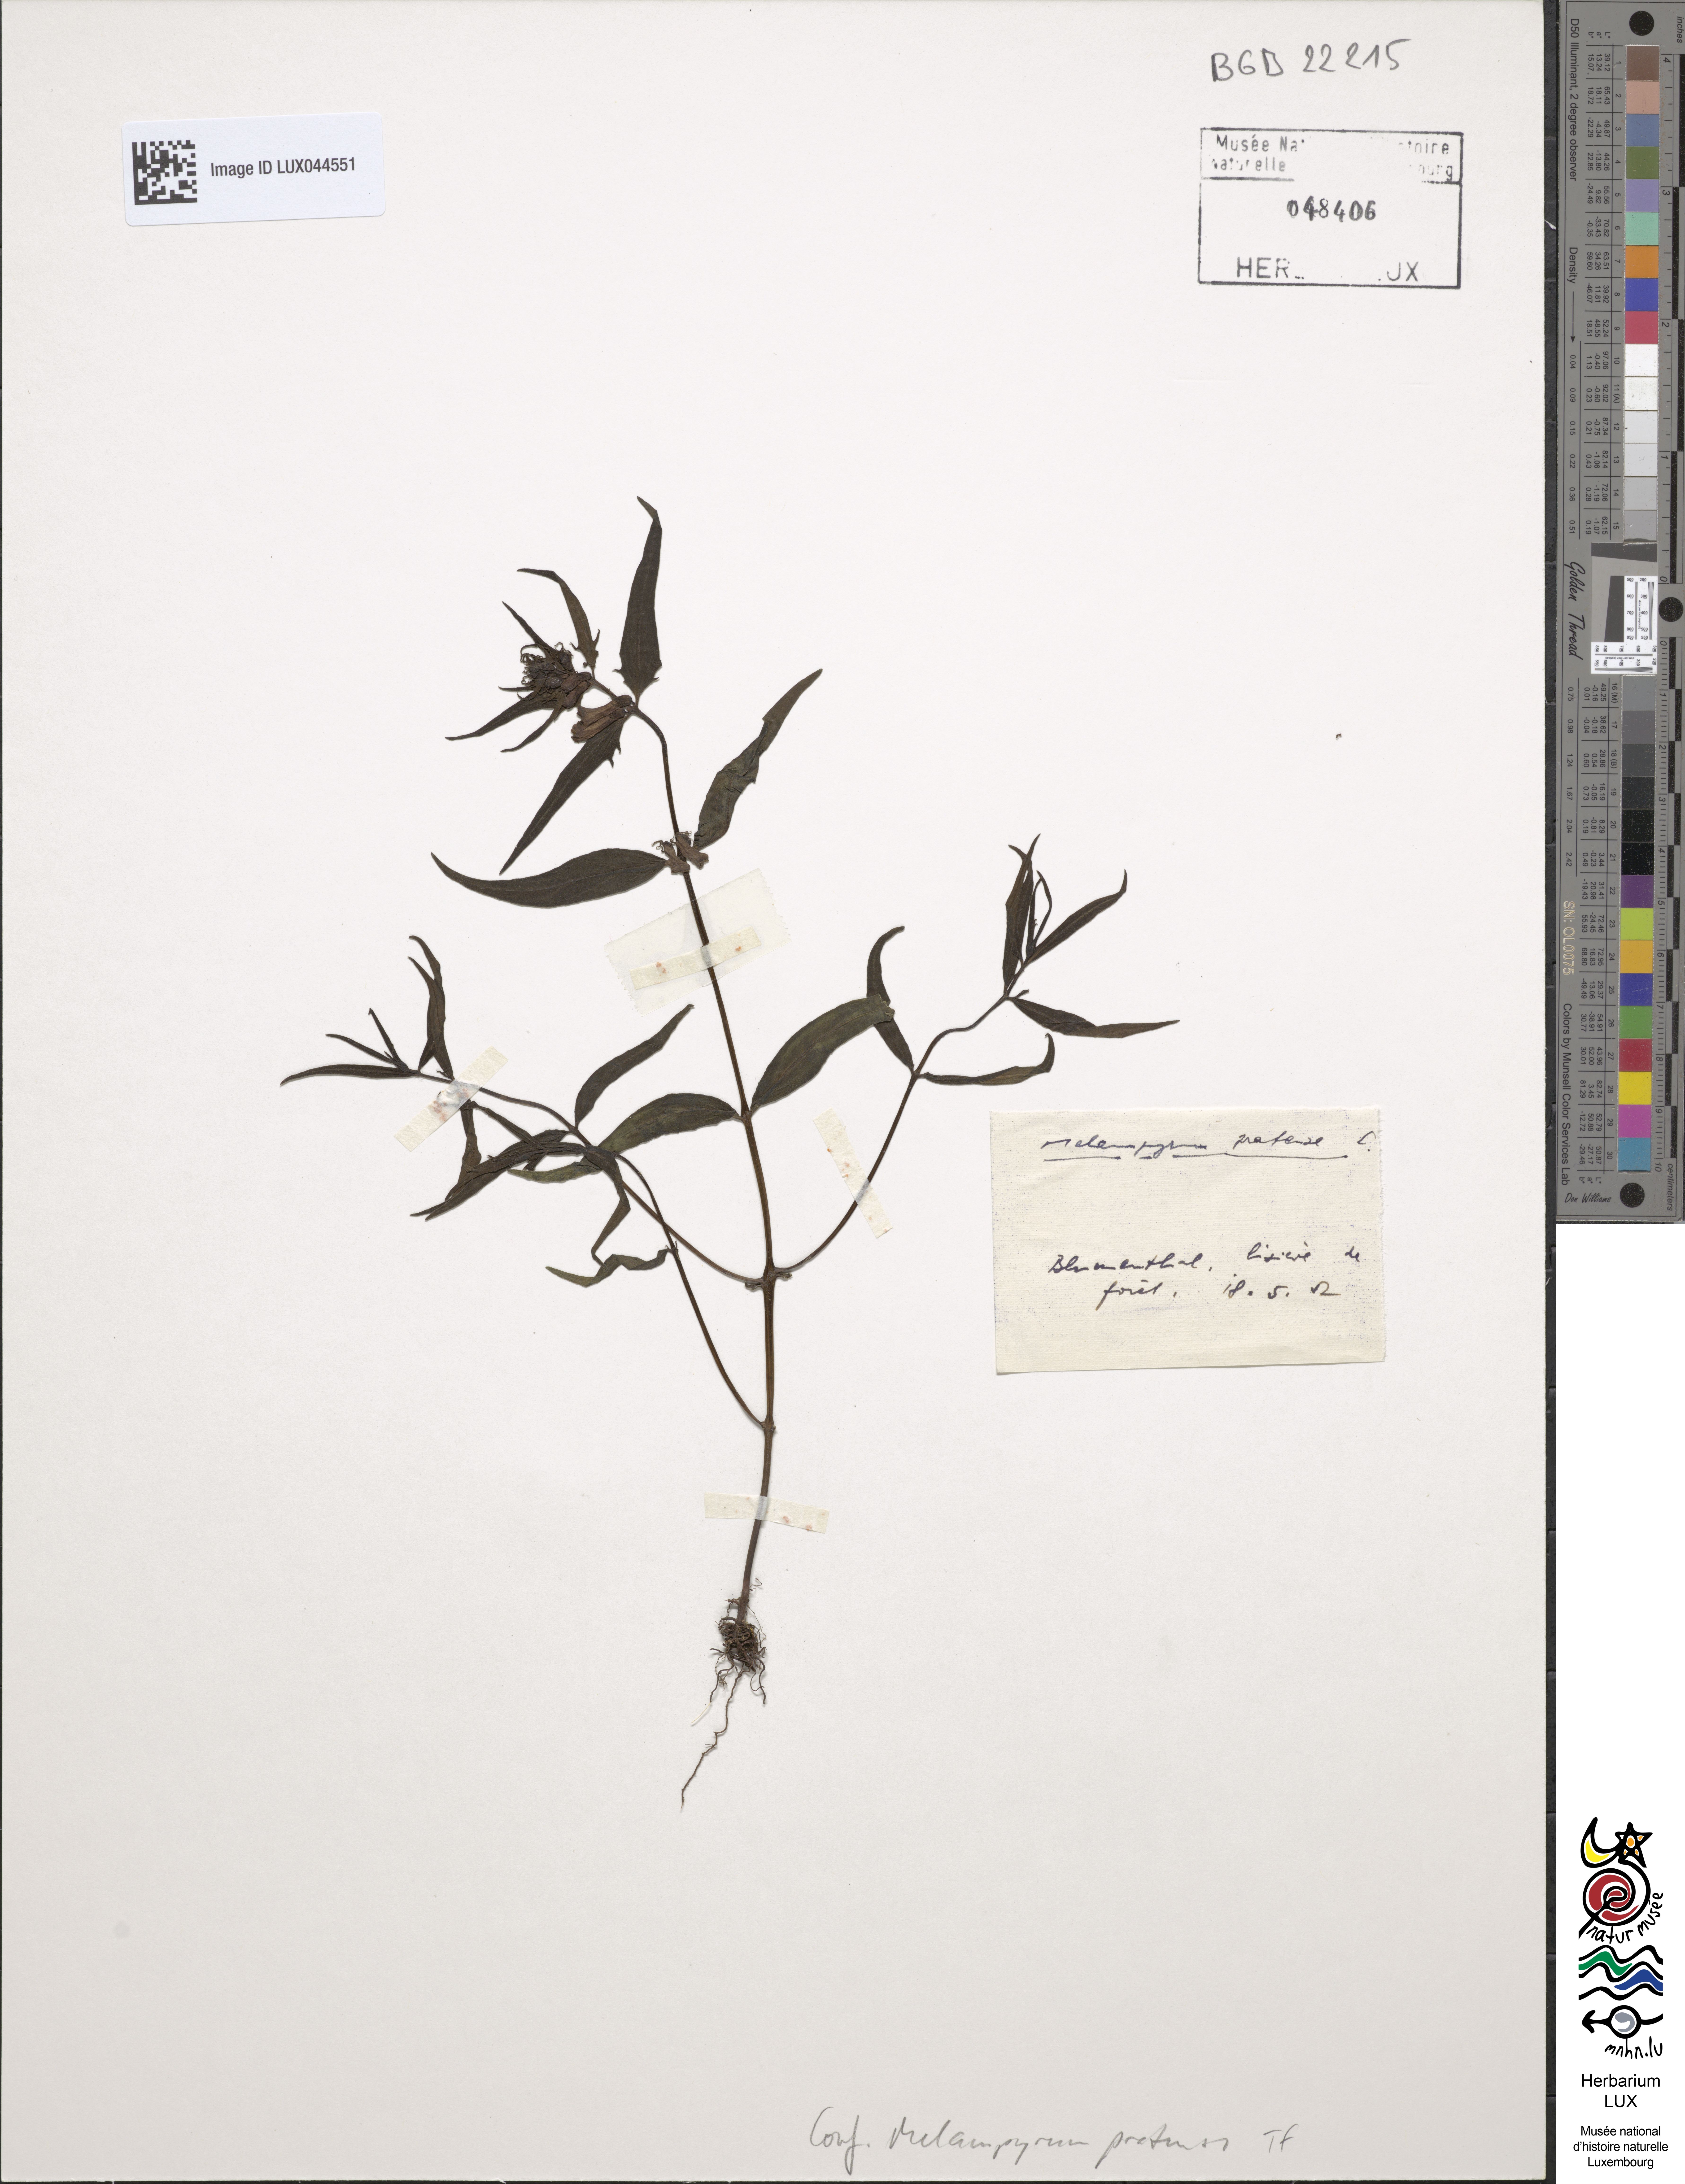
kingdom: Plantae
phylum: Tracheophyta
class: Magnoliopsida
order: Lamiales
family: Orobanchaceae
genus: Melampyrum
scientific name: Melampyrum pratense
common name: Common cow-wheat
